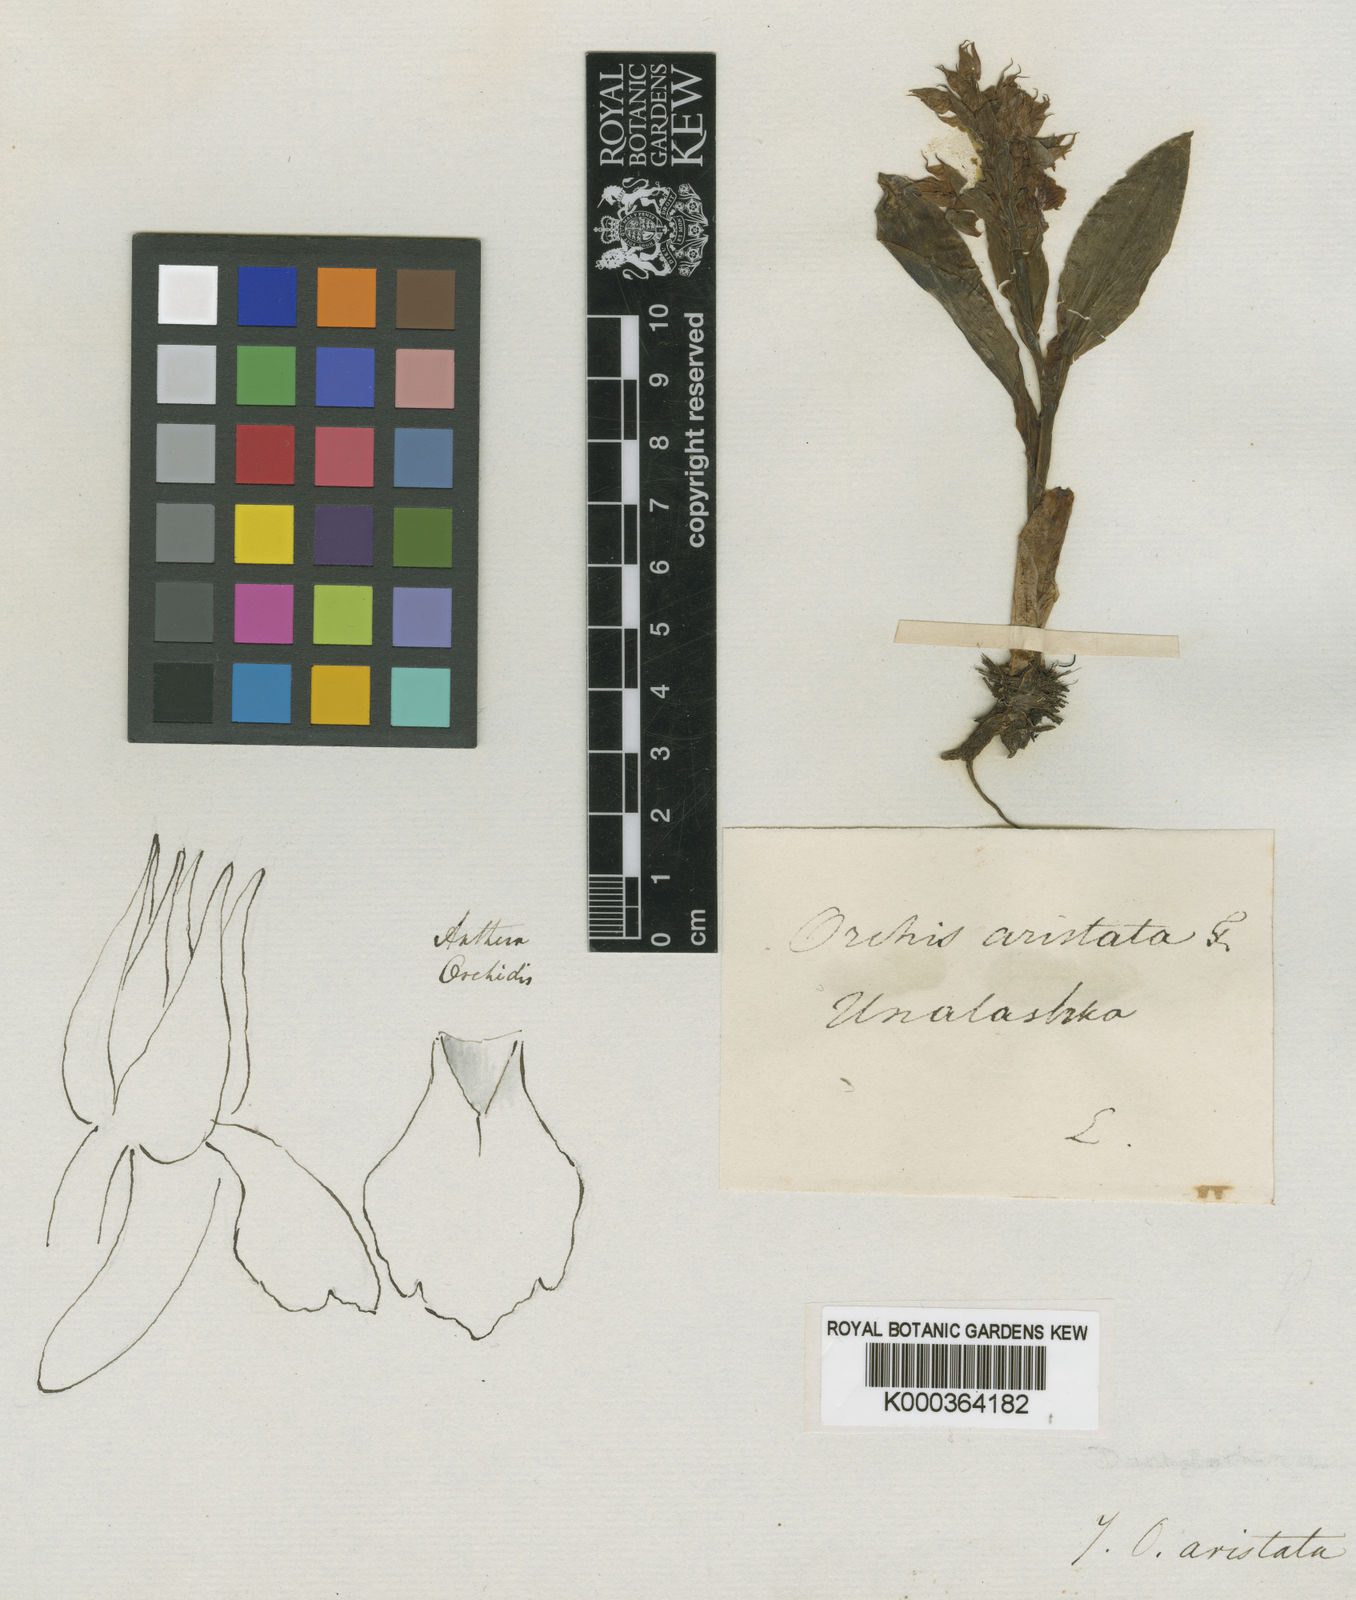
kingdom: Plantae
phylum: Tracheophyta
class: Liliopsida
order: Asparagales
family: Orchidaceae
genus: Dactylorhiza
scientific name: Dactylorhiza
